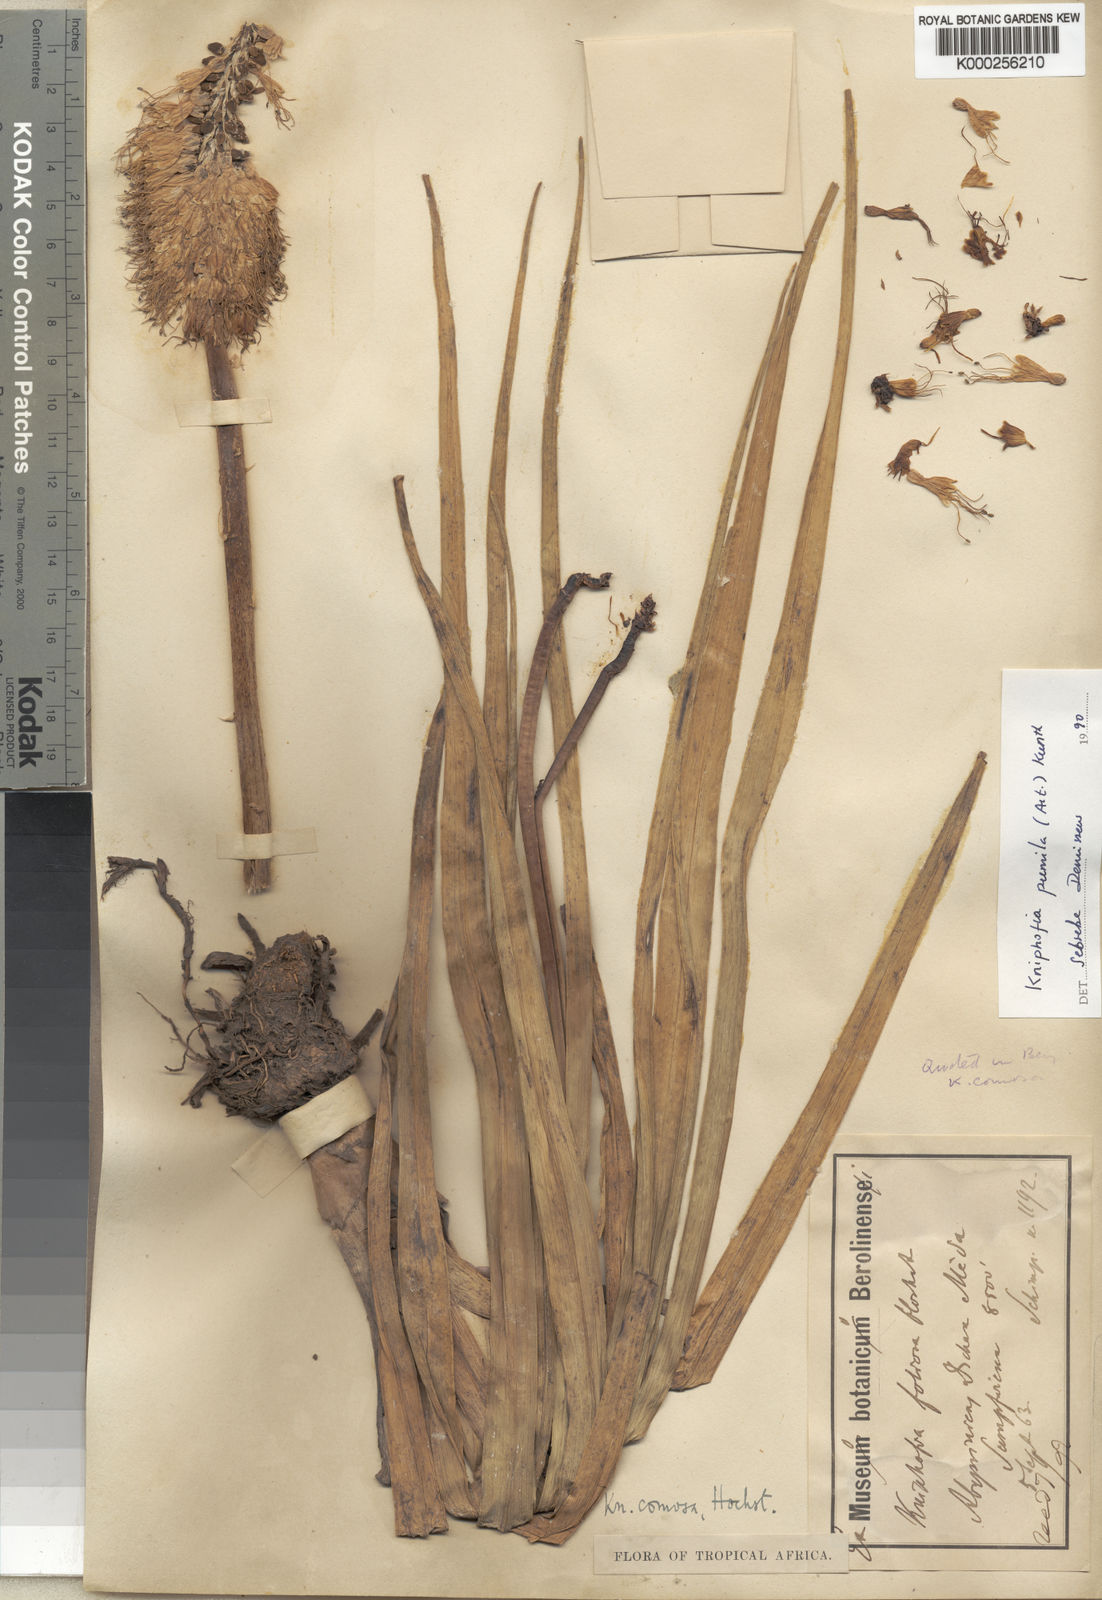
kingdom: Plantae
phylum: Tracheophyta
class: Liliopsida
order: Asparagales
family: Asphodelaceae
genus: Kniphofia
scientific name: Kniphofia pumila
